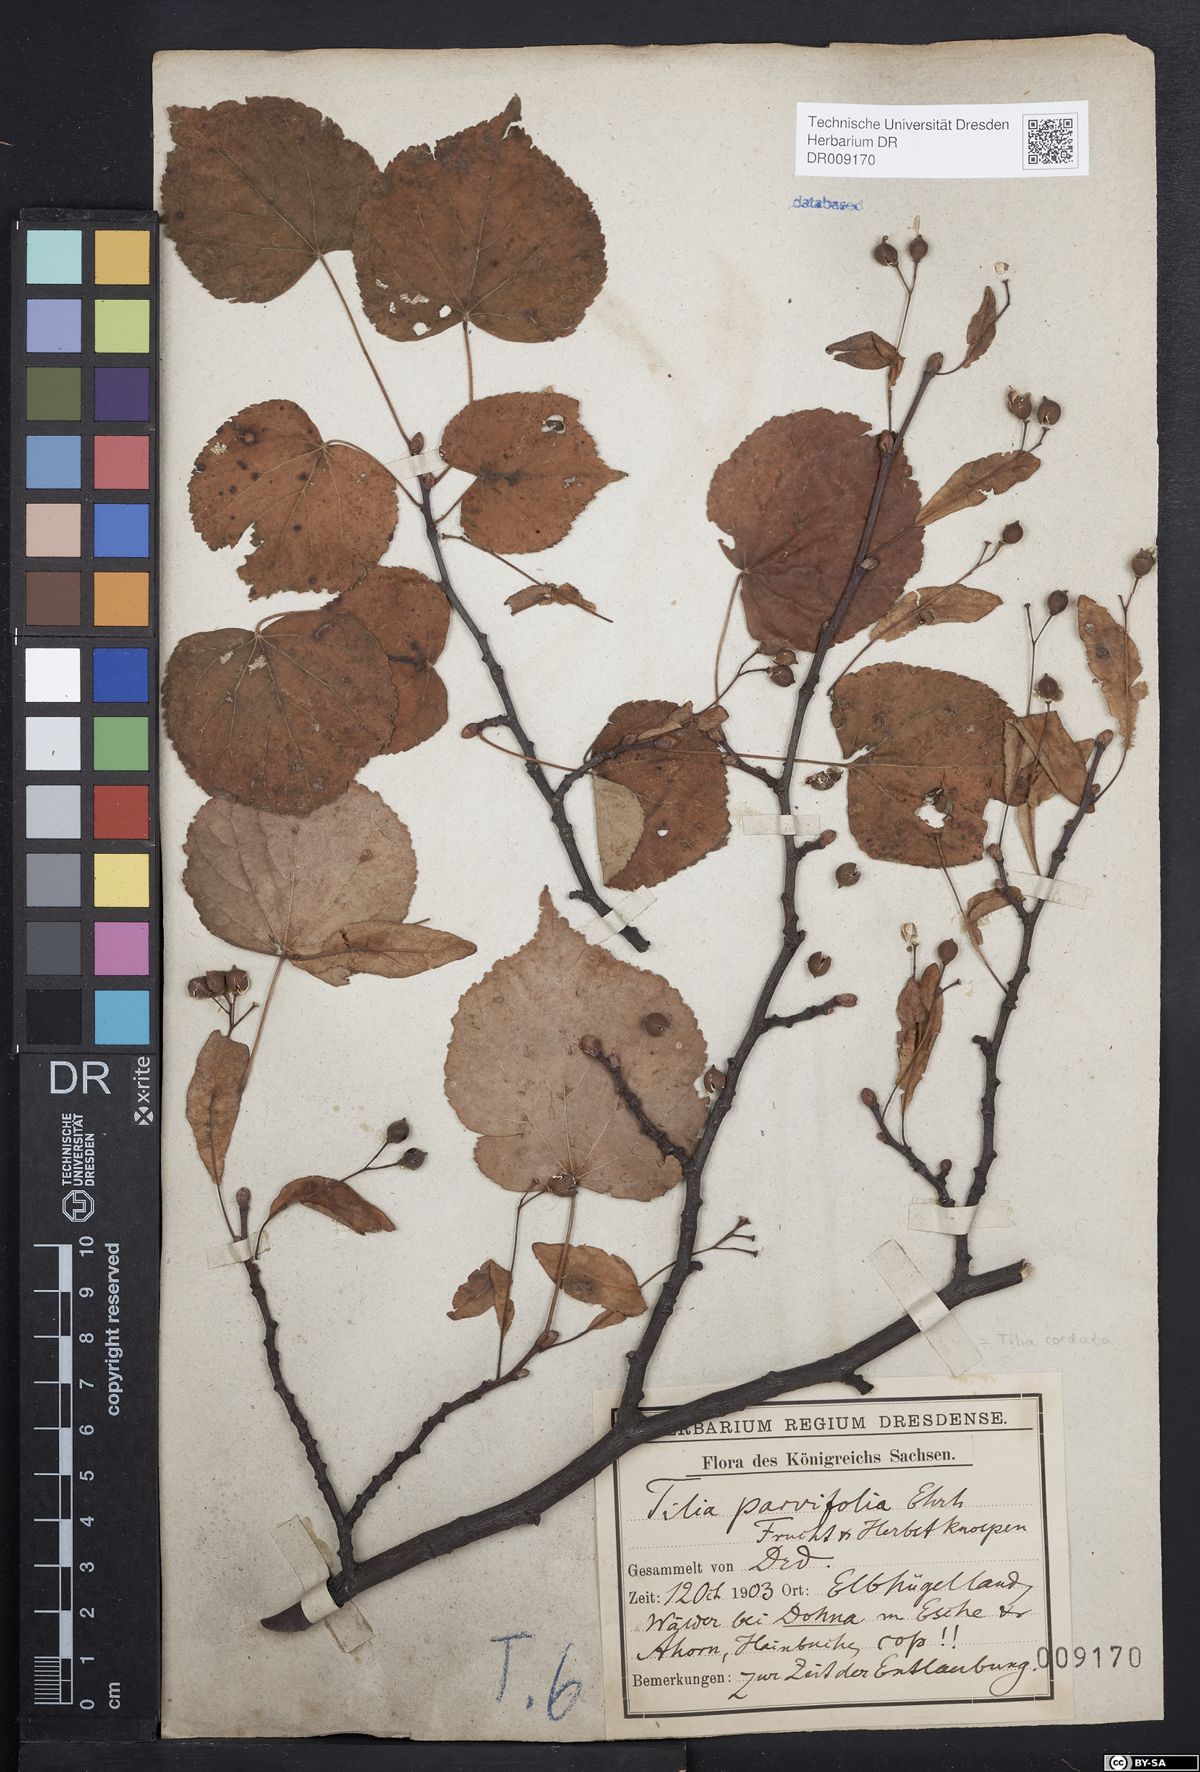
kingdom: Plantae
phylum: Tracheophyta
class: Magnoliopsida
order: Malvales
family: Malvaceae
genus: Tilia
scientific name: Tilia cordata
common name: Small-leaved lime
